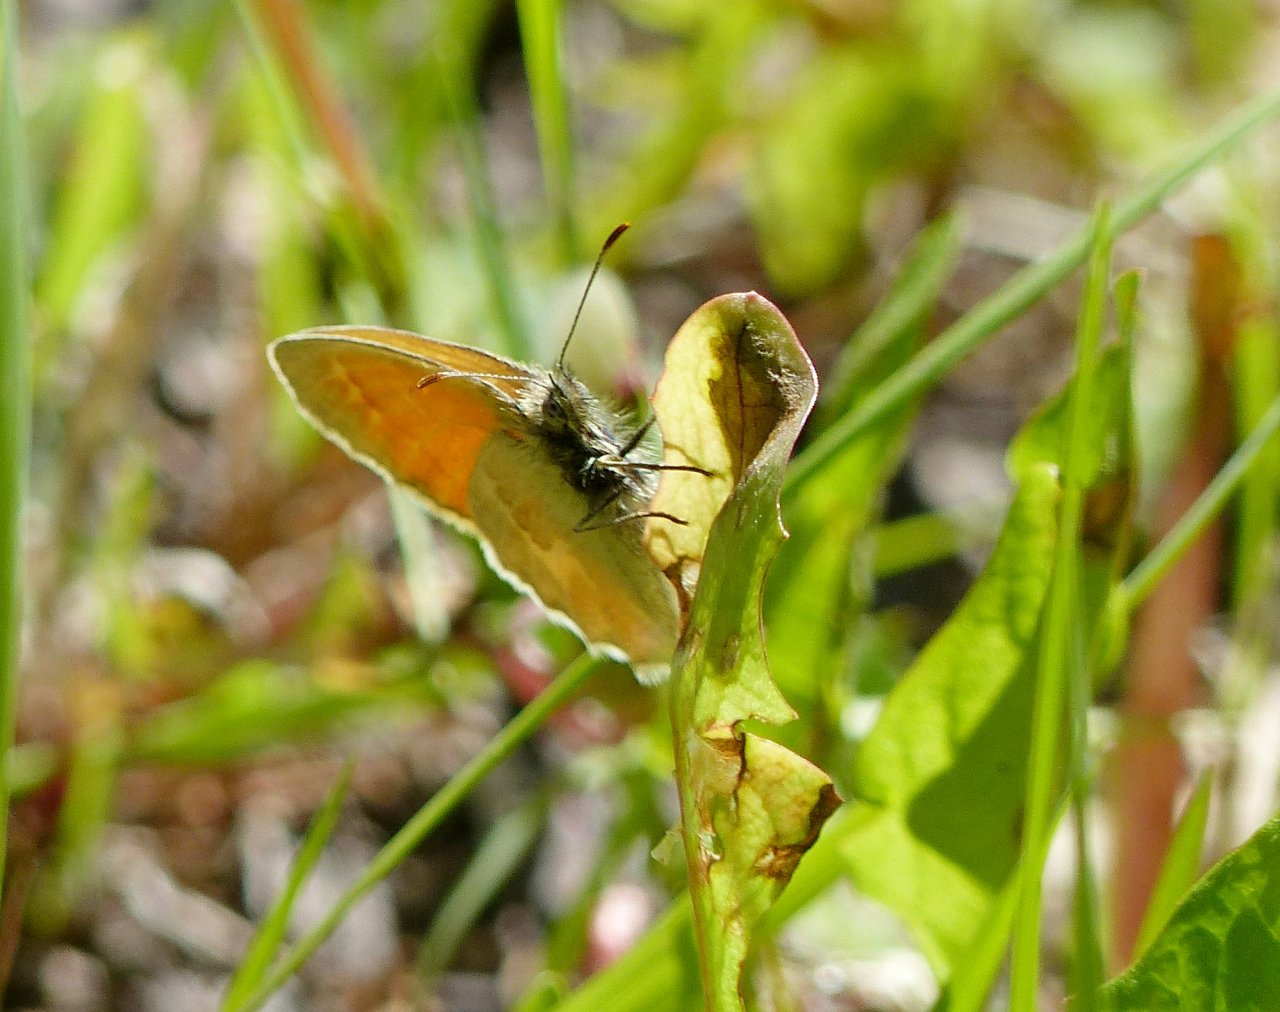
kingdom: Animalia
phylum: Arthropoda
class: Insecta
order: Lepidoptera
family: Nymphalidae
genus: Coenonympha
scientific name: Coenonympha tullia
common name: Large Heath
